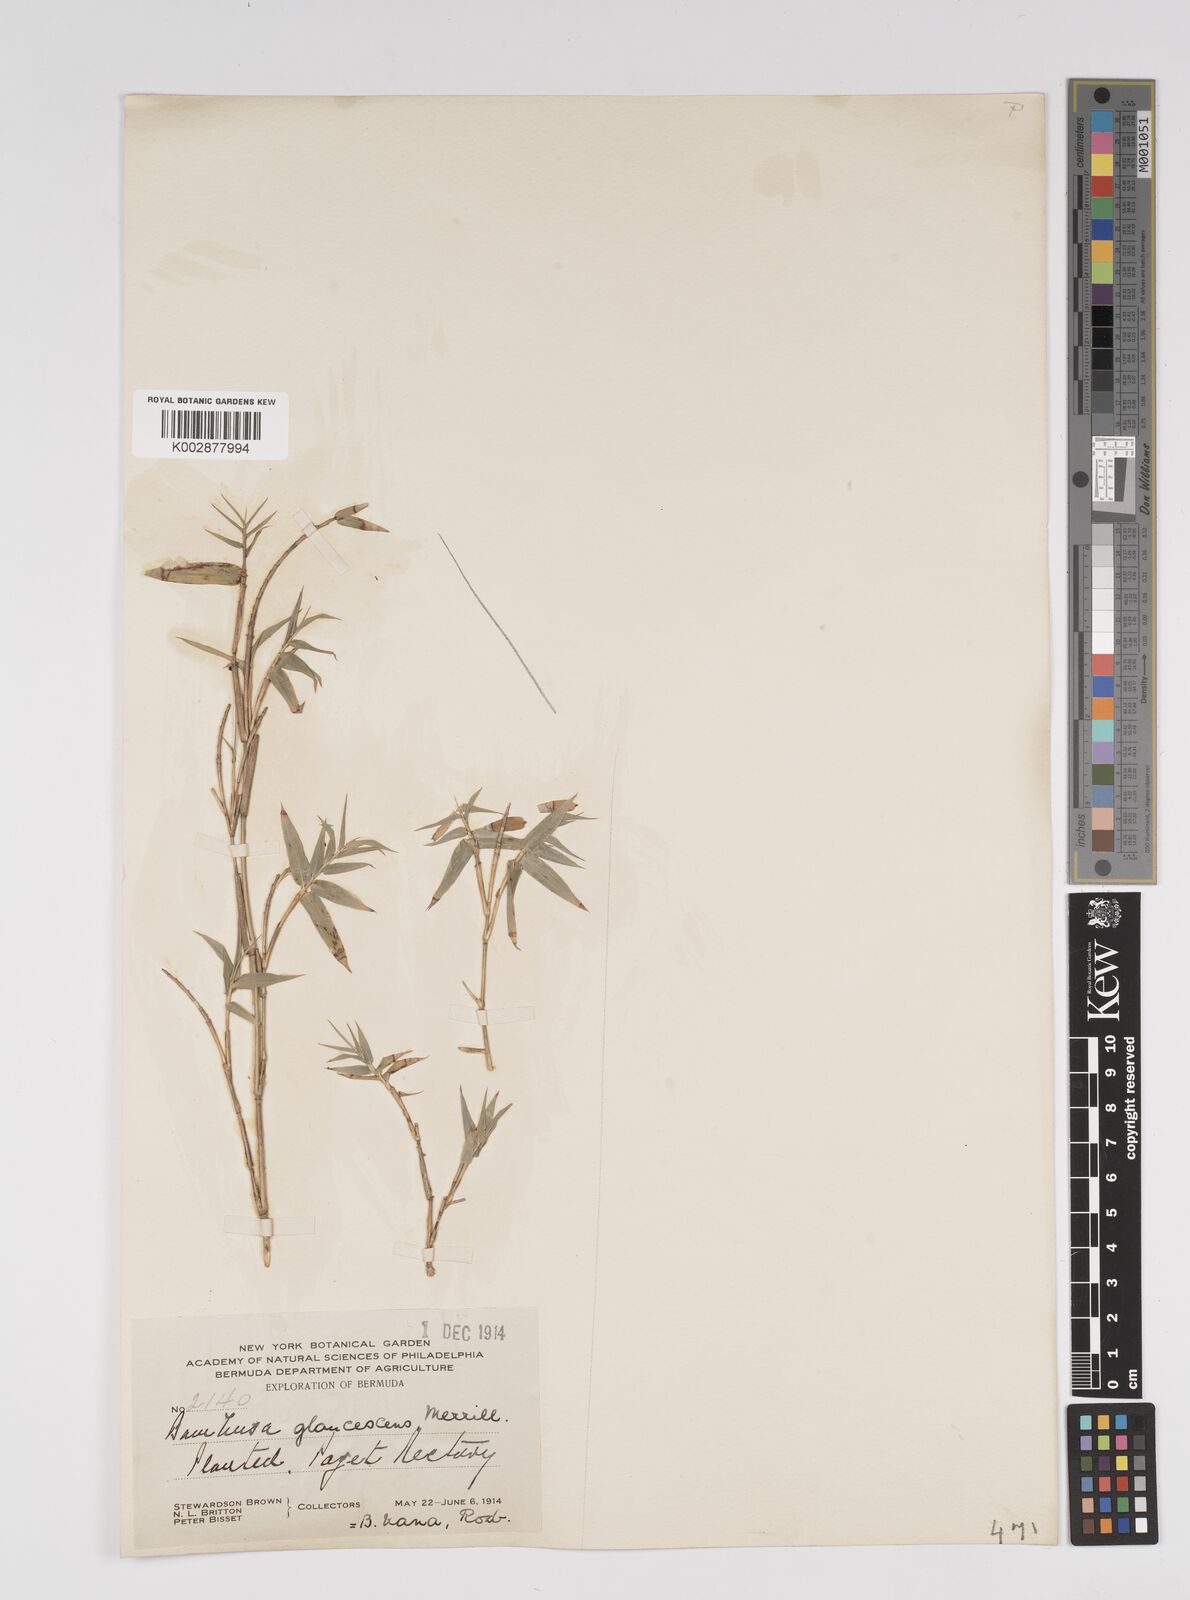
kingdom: Plantae
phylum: Tracheophyta
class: Liliopsida
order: Poales
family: Poaceae
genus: Bambusa
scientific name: Bambusa multiplex
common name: Hedge bamboo
